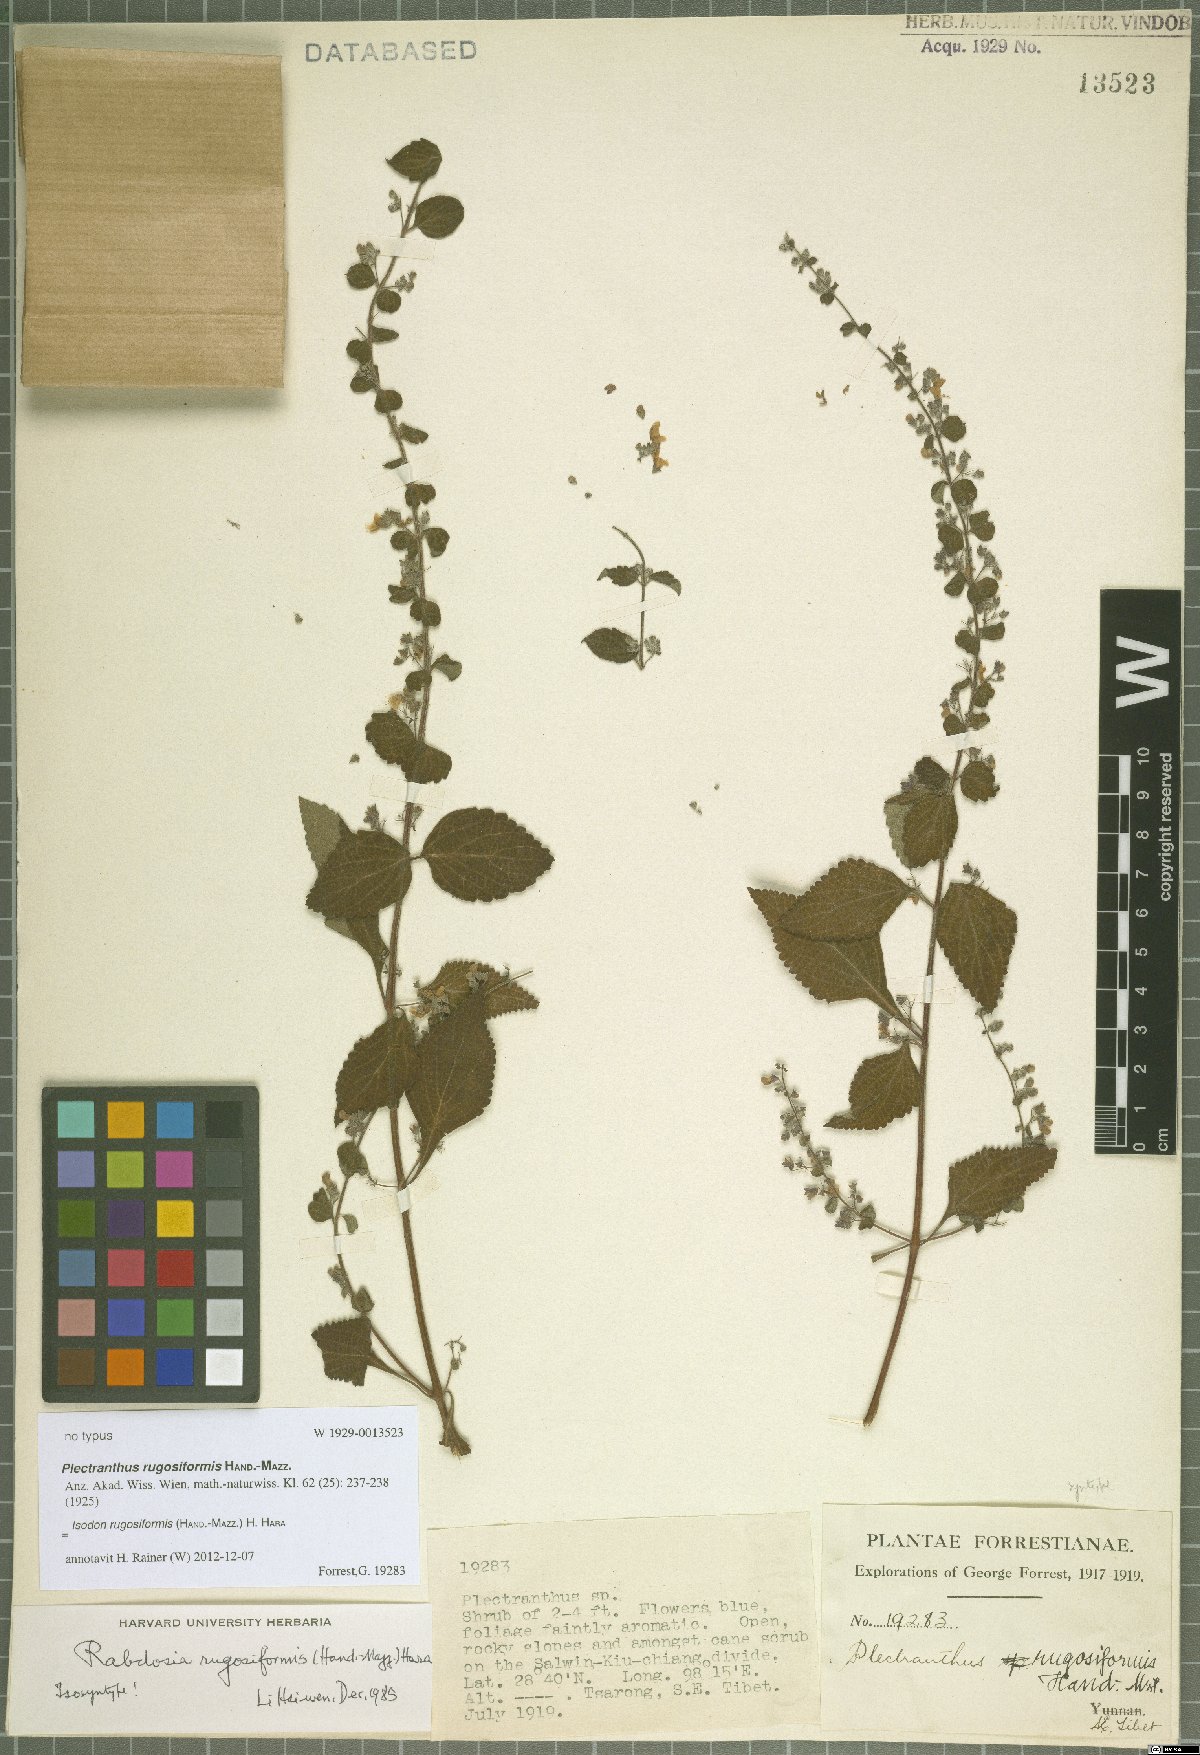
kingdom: Plantae
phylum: Tracheophyta
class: Magnoliopsida
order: Lamiales
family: Lamiaceae
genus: Isodon
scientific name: Isodon rugosiformis
